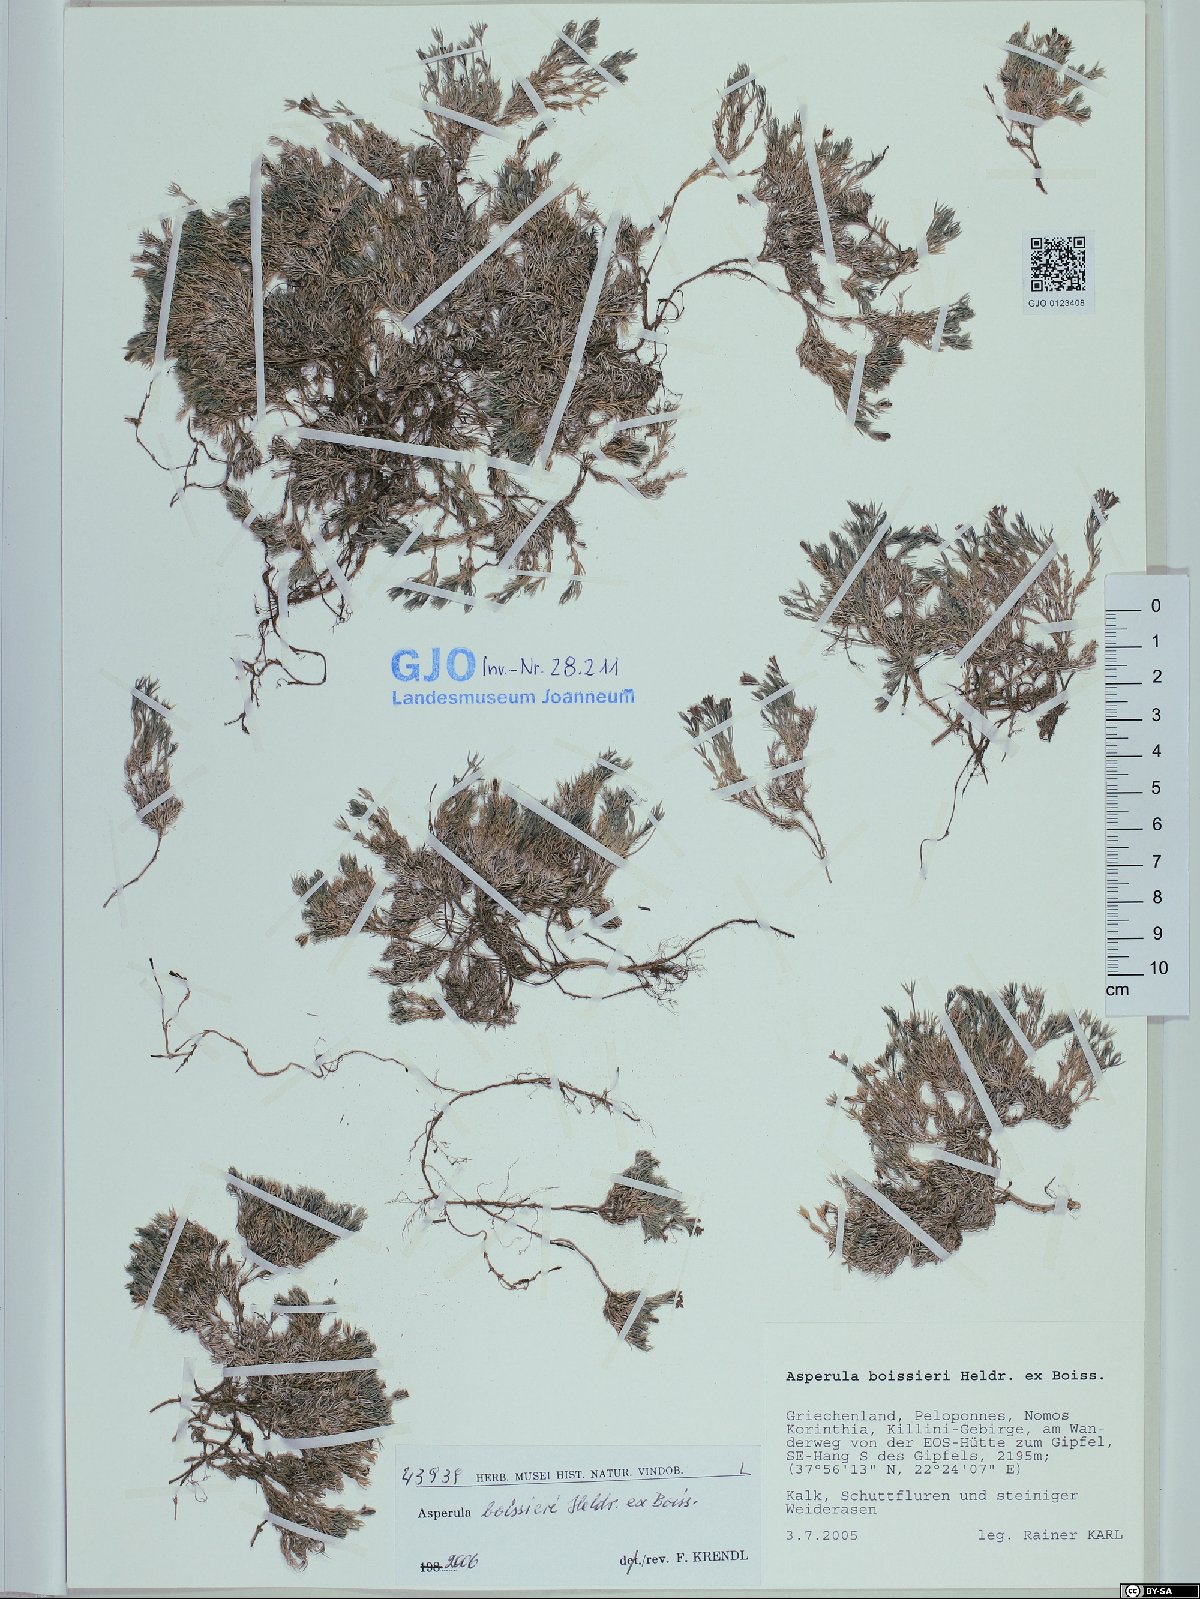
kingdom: Plantae
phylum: Tracheophyta
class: Magnoliopsida
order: Gentianales
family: Rubiaceae
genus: Cynanchica
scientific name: Cynanchica boissieri
